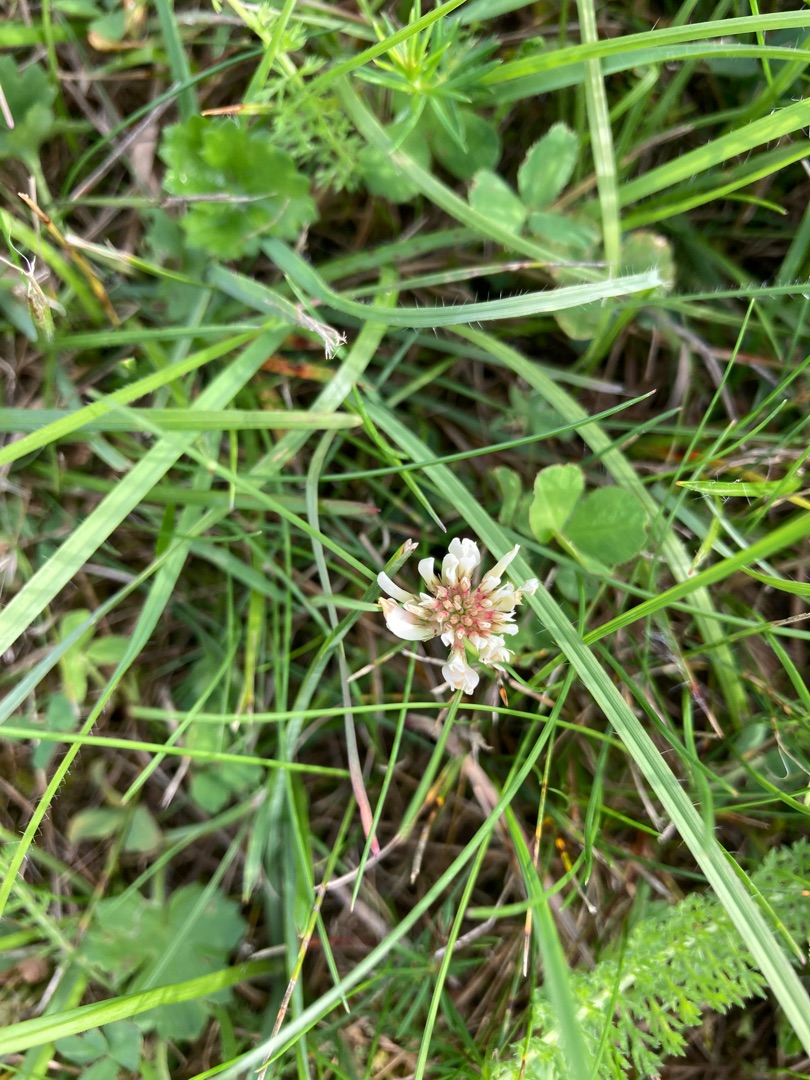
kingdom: Plantae
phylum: Tracheophyta
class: Magnoliopsida
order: Fabales
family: Fabaceae
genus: Trifolium
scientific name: Trifolium repens
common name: Hvid-kløver
